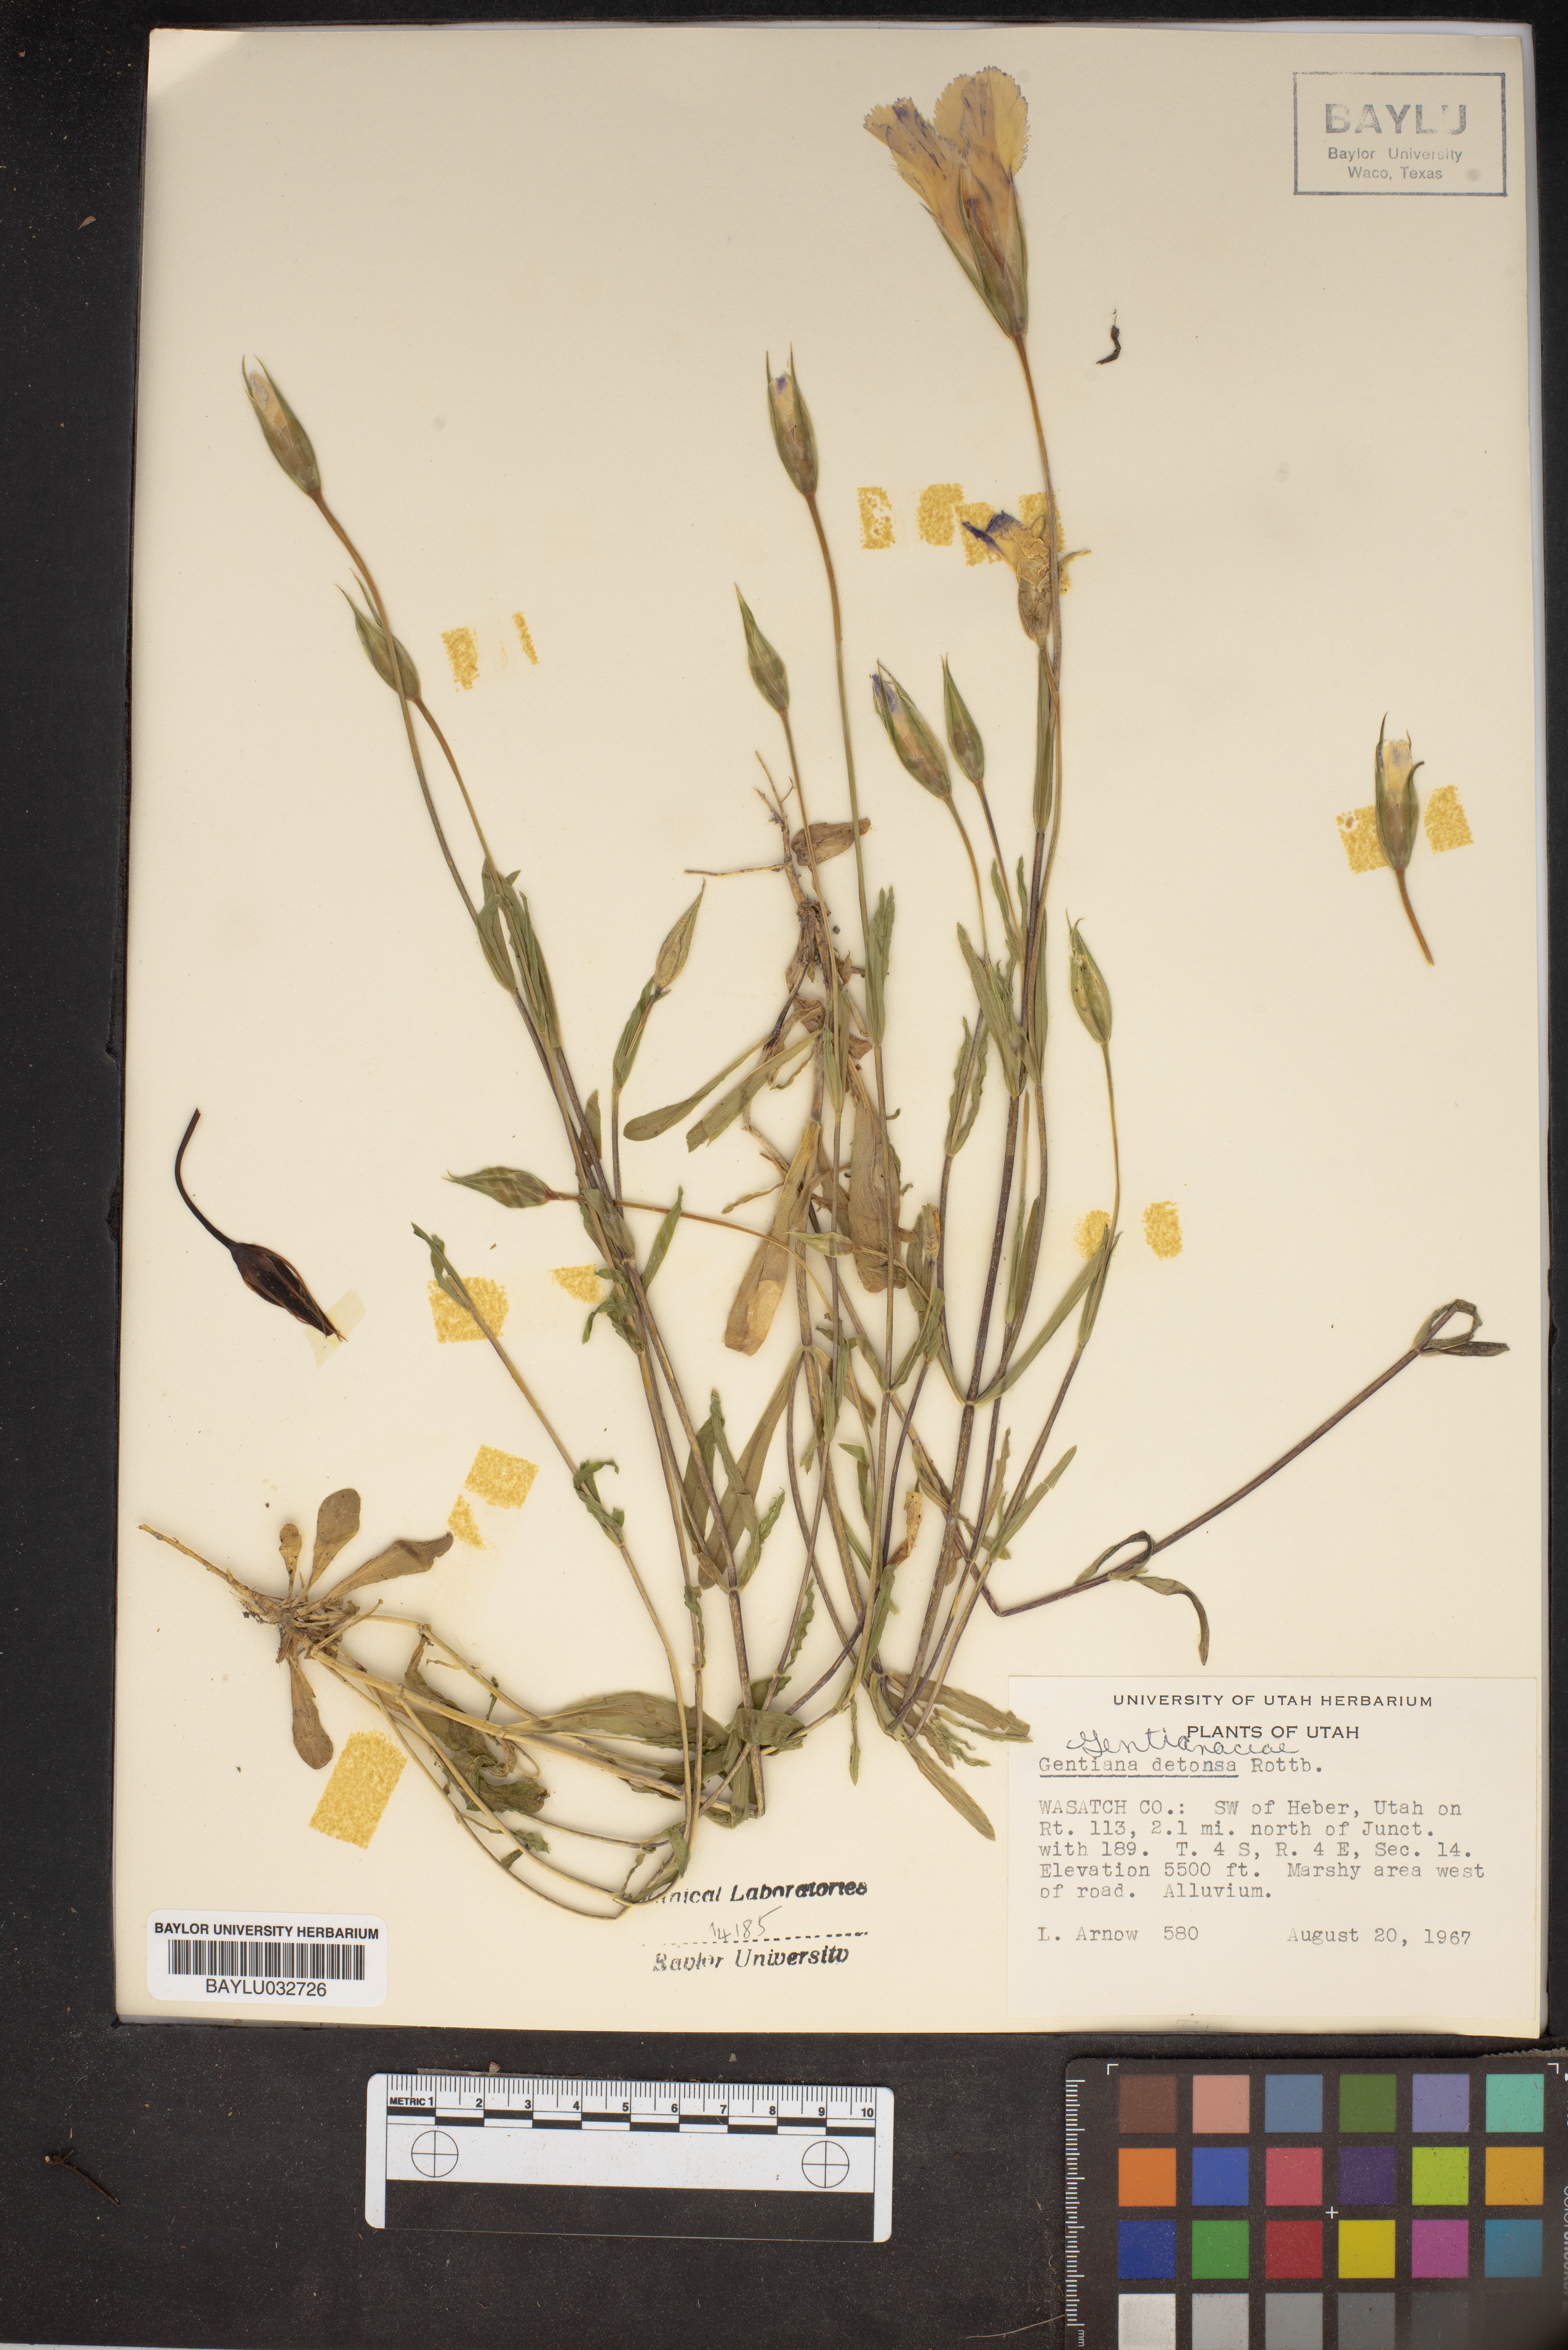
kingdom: Plantae
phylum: Tracheophyta
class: Magnoliopsida
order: Gentianales
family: Gentianaceae
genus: Gentianopsis
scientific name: Gentianopsis detonsa
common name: Fringed-gentian
